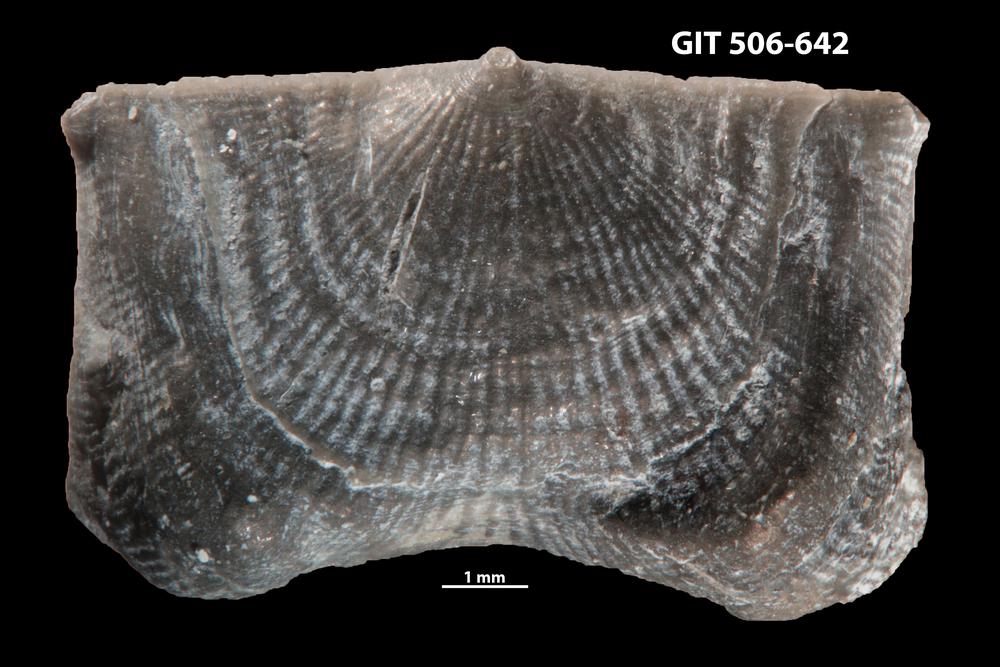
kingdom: Animalia
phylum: Brachiopoda
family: Strophomenidae
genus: Leptaena
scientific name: Leptaena altera
